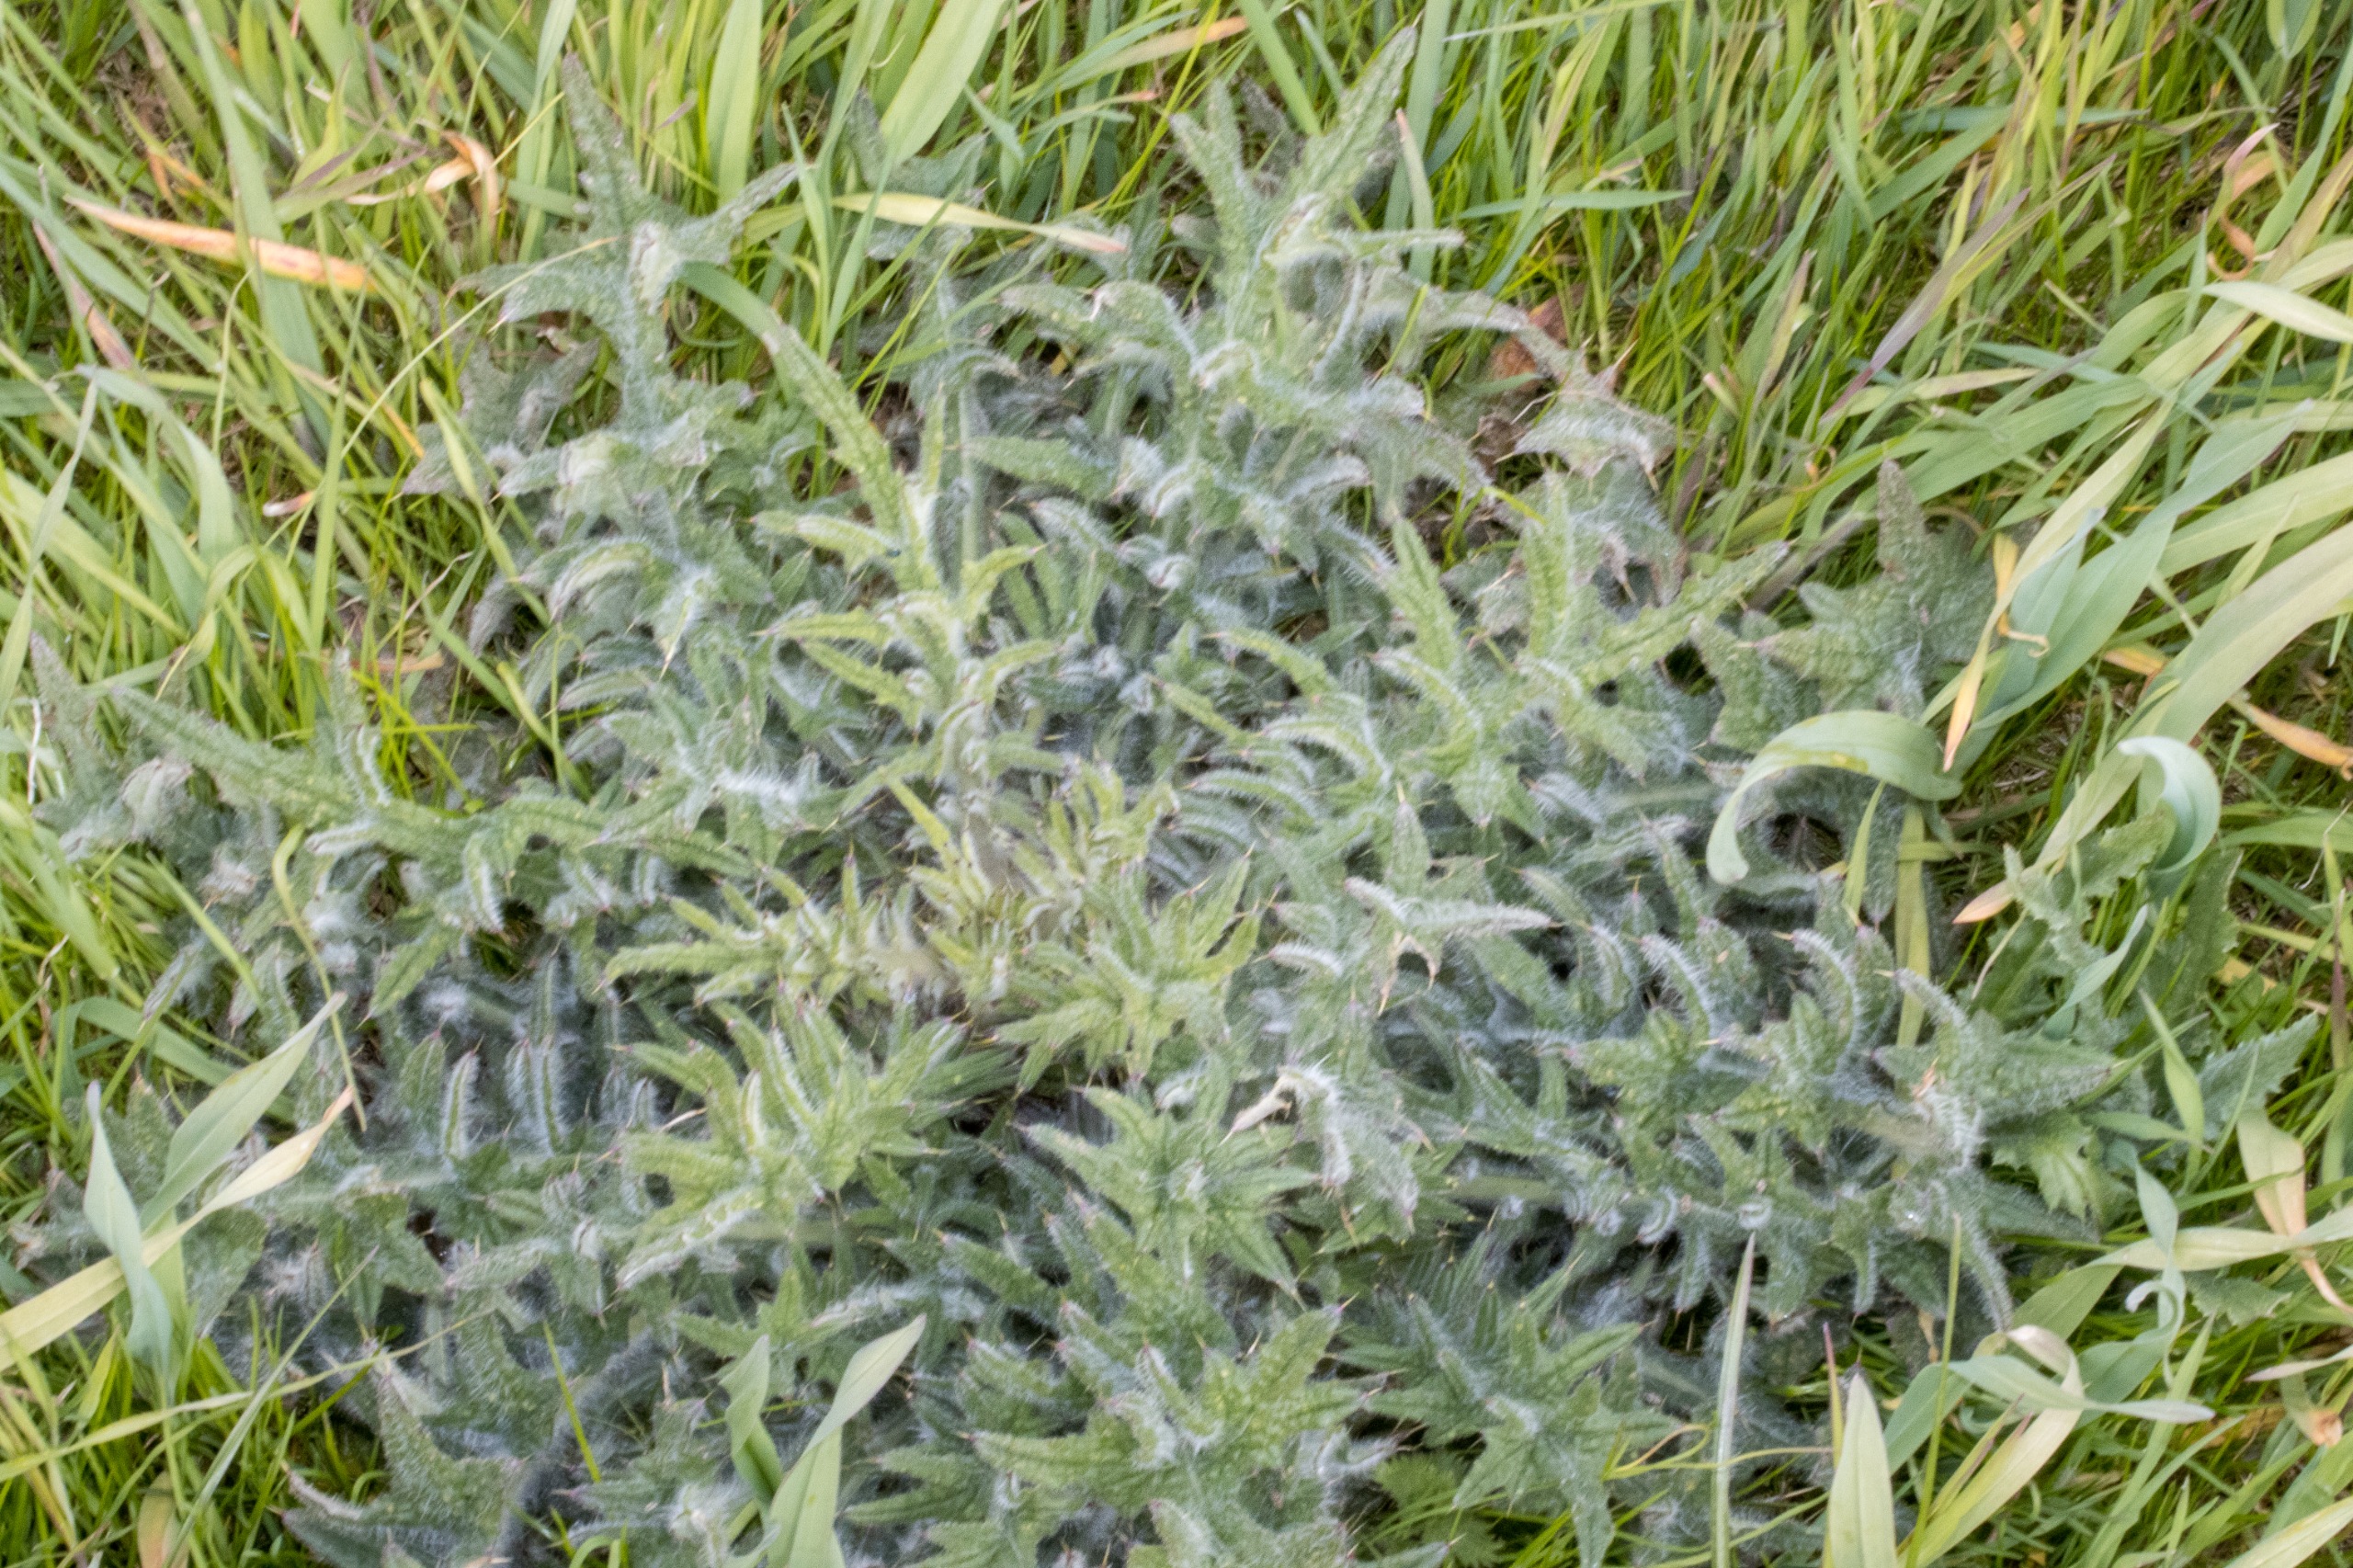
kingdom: Plantae
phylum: Tracheophyta
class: Magnoliopsida
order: Asterales
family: Asteraceae
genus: Cirsium
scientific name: Cirsium vulgare
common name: Horse-tidsel
